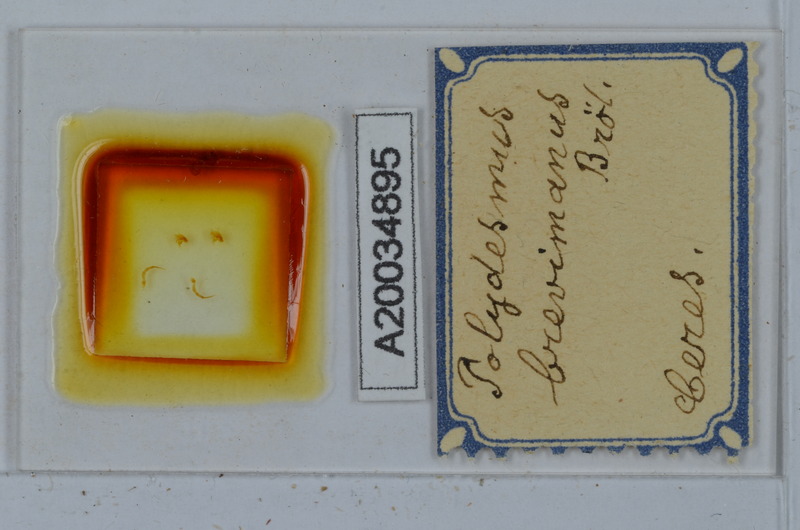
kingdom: Animalia
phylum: Arthropoda
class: Diplopoda
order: Polydesmida
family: Polydesmidae
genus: Polydesmus
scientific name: Polydesmus brevimanus
